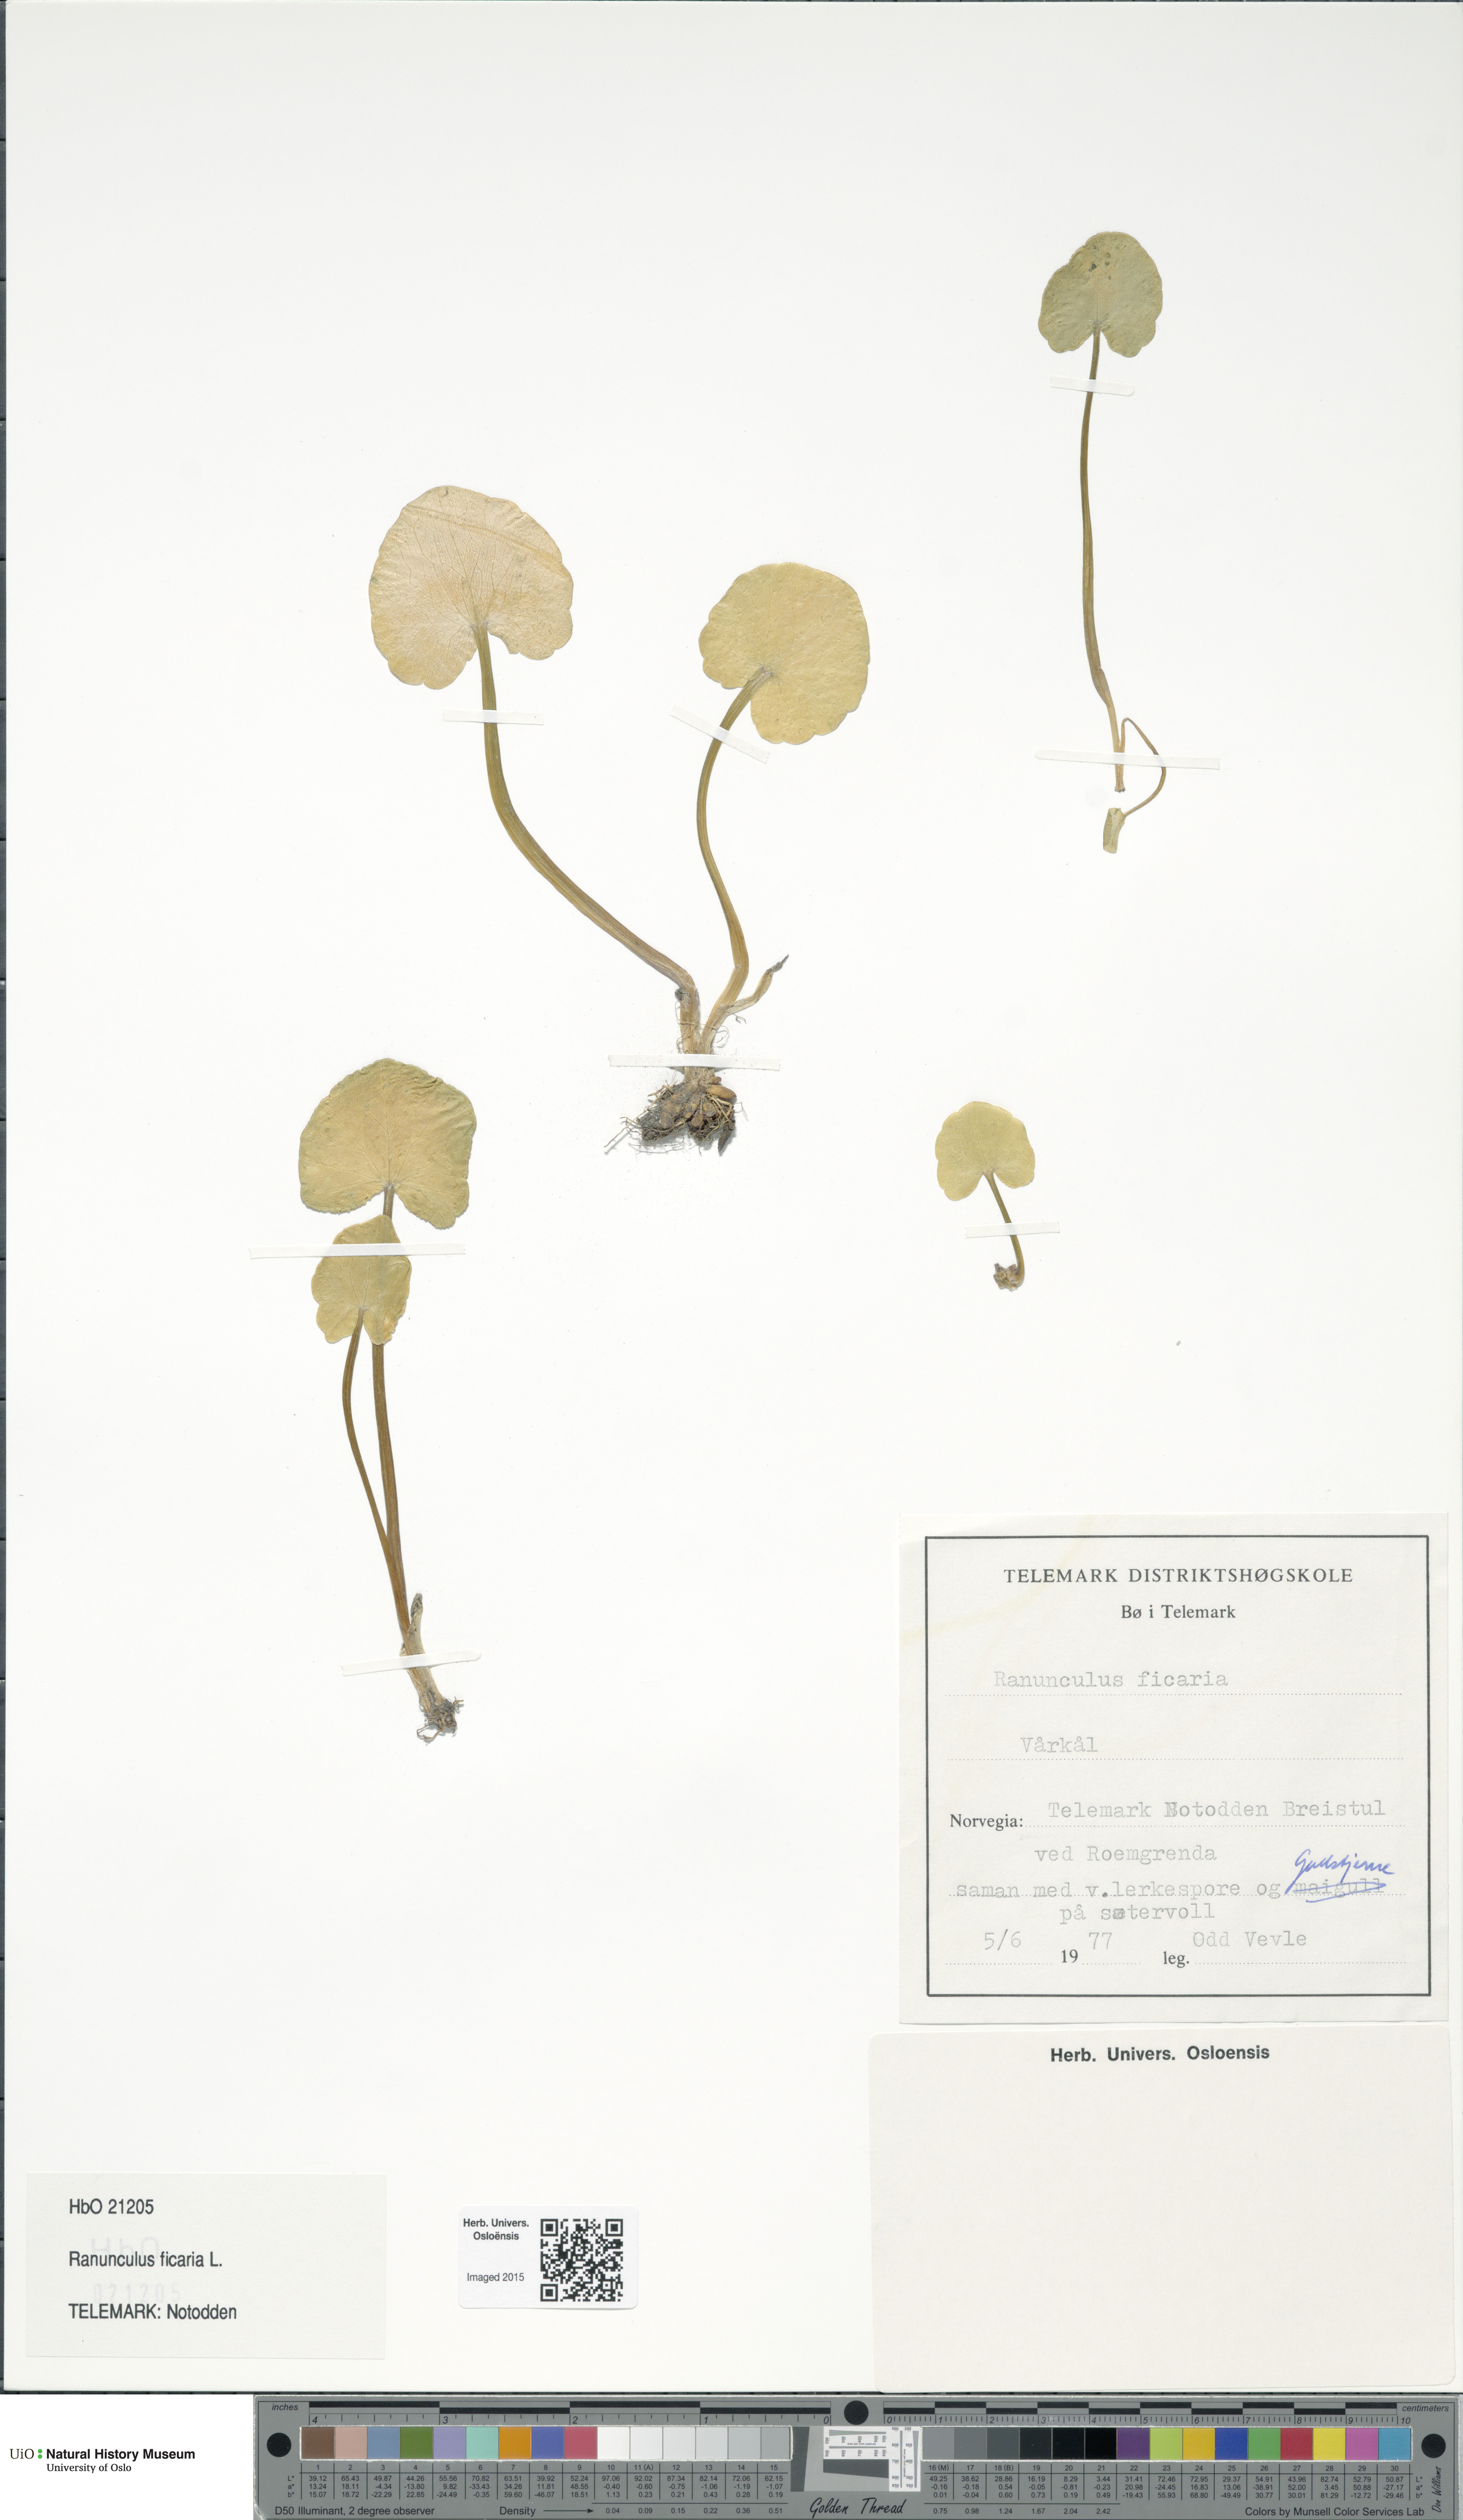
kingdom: Plantae
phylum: Tracheophyta
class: Magnoliopsida
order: Ranunculales
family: Ranunculaceae
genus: Ficaria
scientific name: Ficaria verna
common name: Lesser celandine
